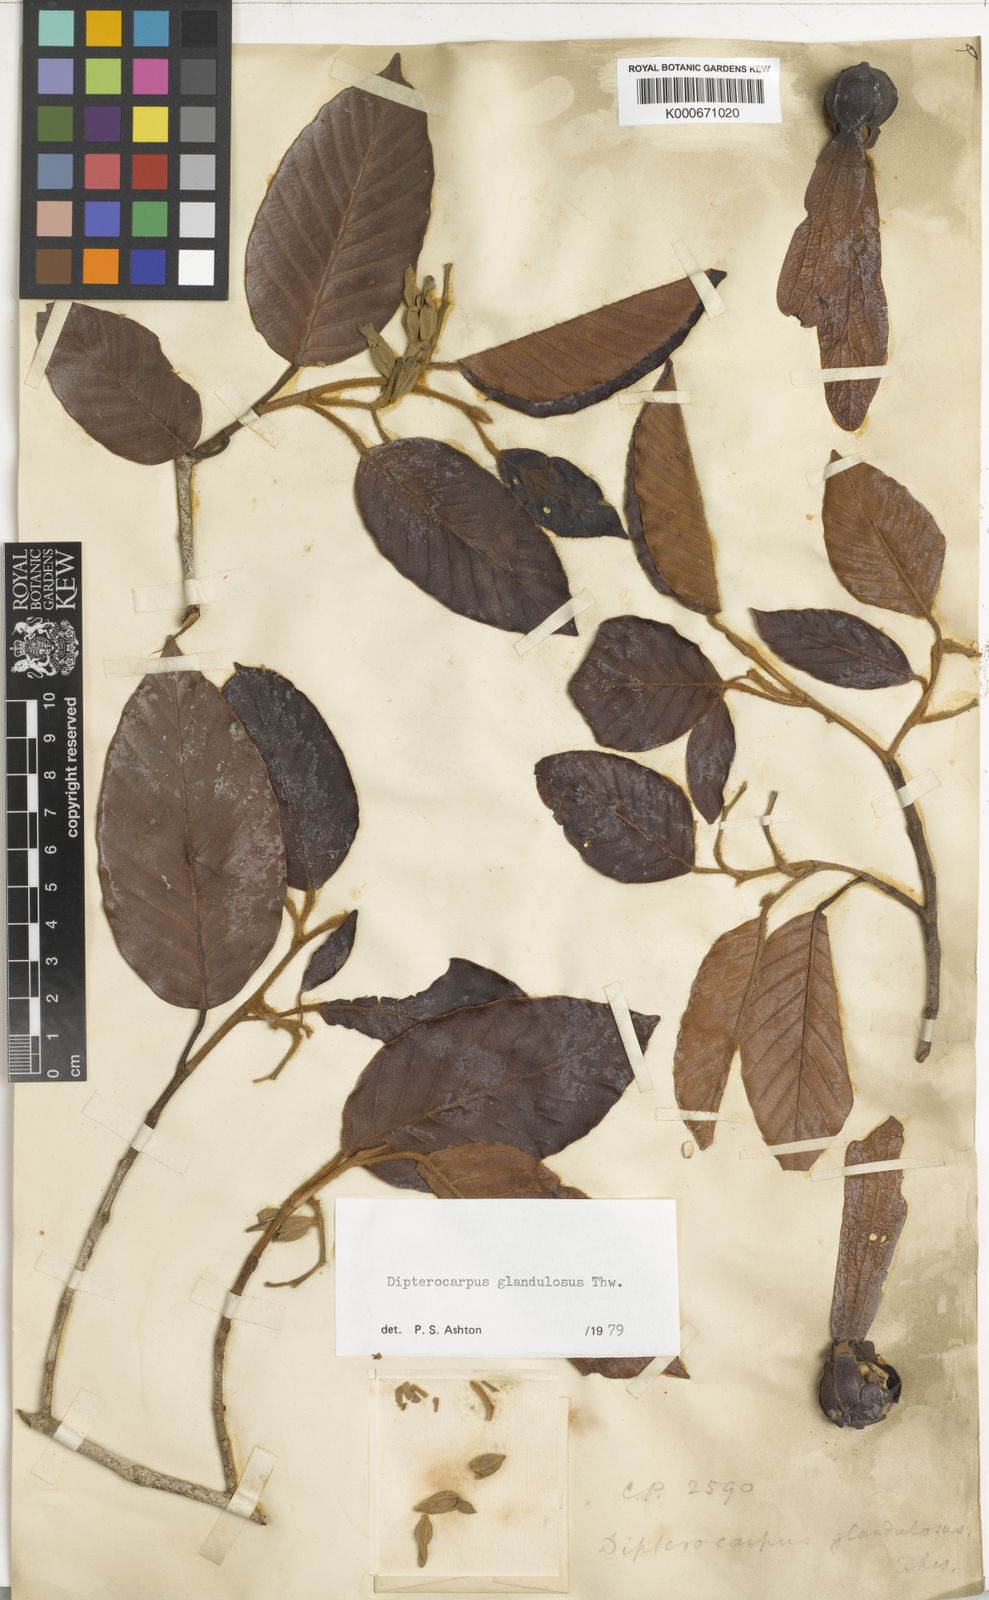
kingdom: Plantae
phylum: Tracheophyta
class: Magnoliopsida
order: Malvales
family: Dipterocarpaceae
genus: Dipterocarpus
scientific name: Dipterocarpus glandulosus
